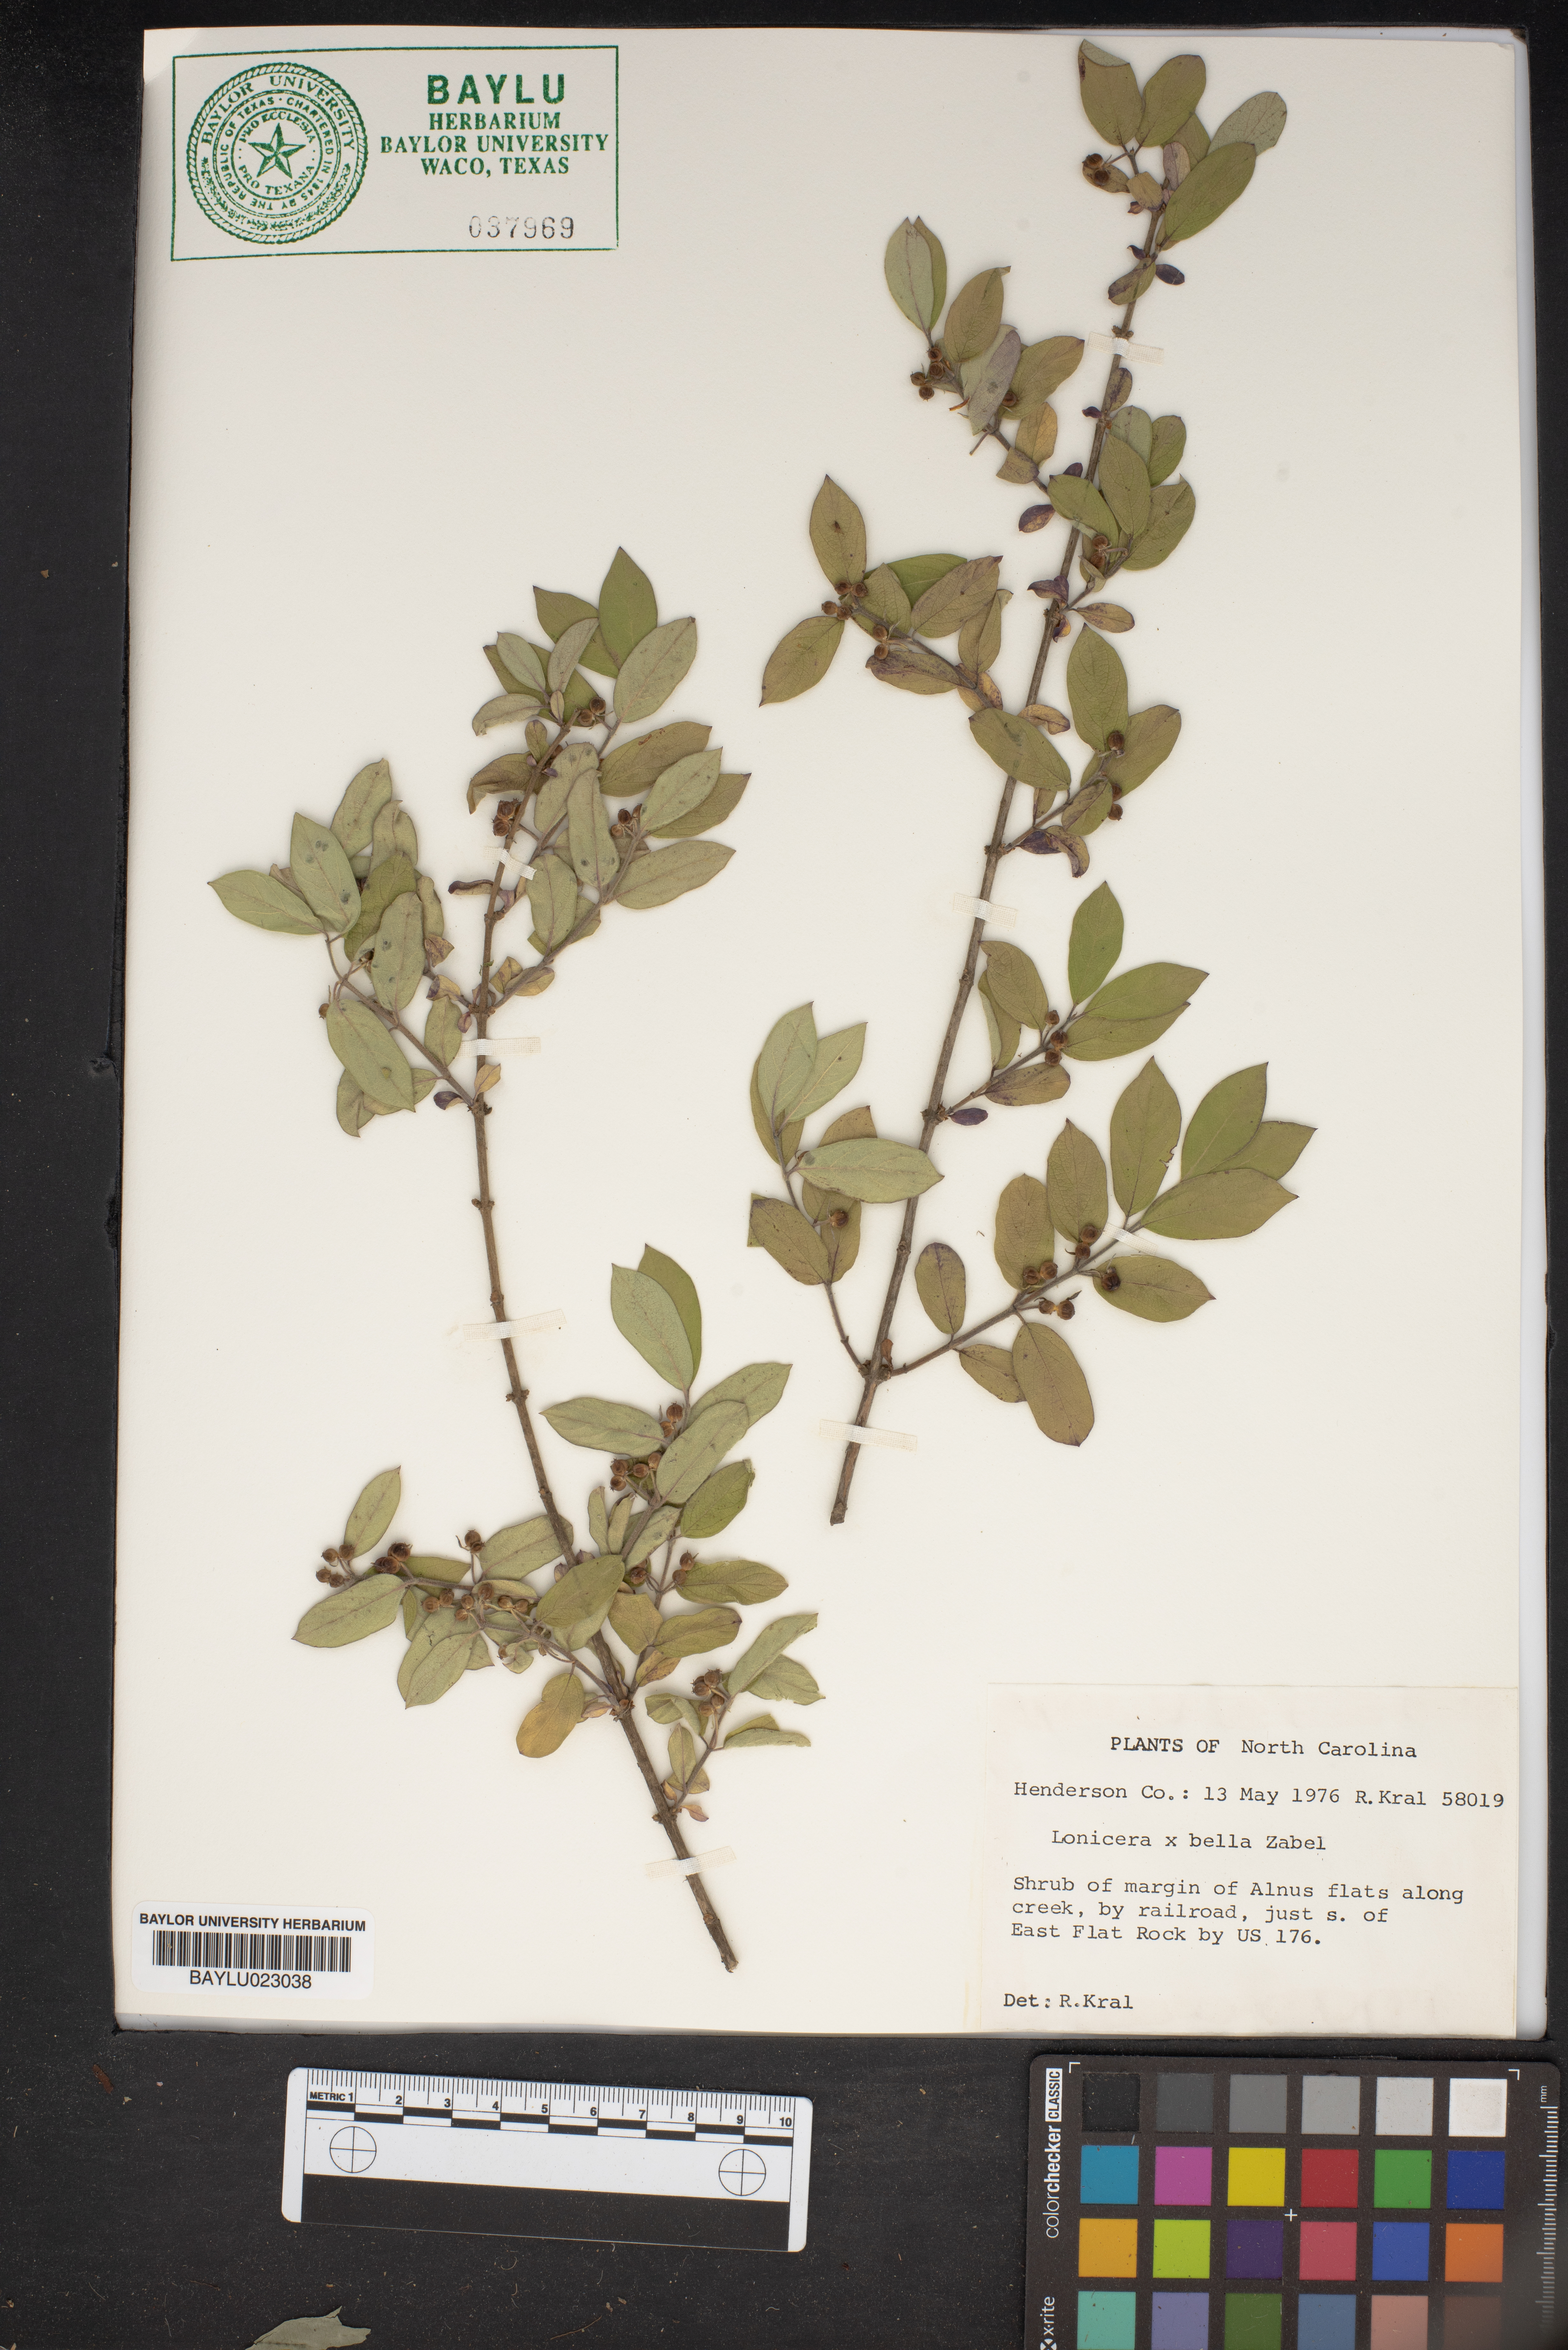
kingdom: Plantae
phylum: Tracheophyta
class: Magnoliopsida
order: Dipsacales
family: Caprifoliaceae
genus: Lonicera
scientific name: Lonicera bella
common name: Bell's honeysuckle
